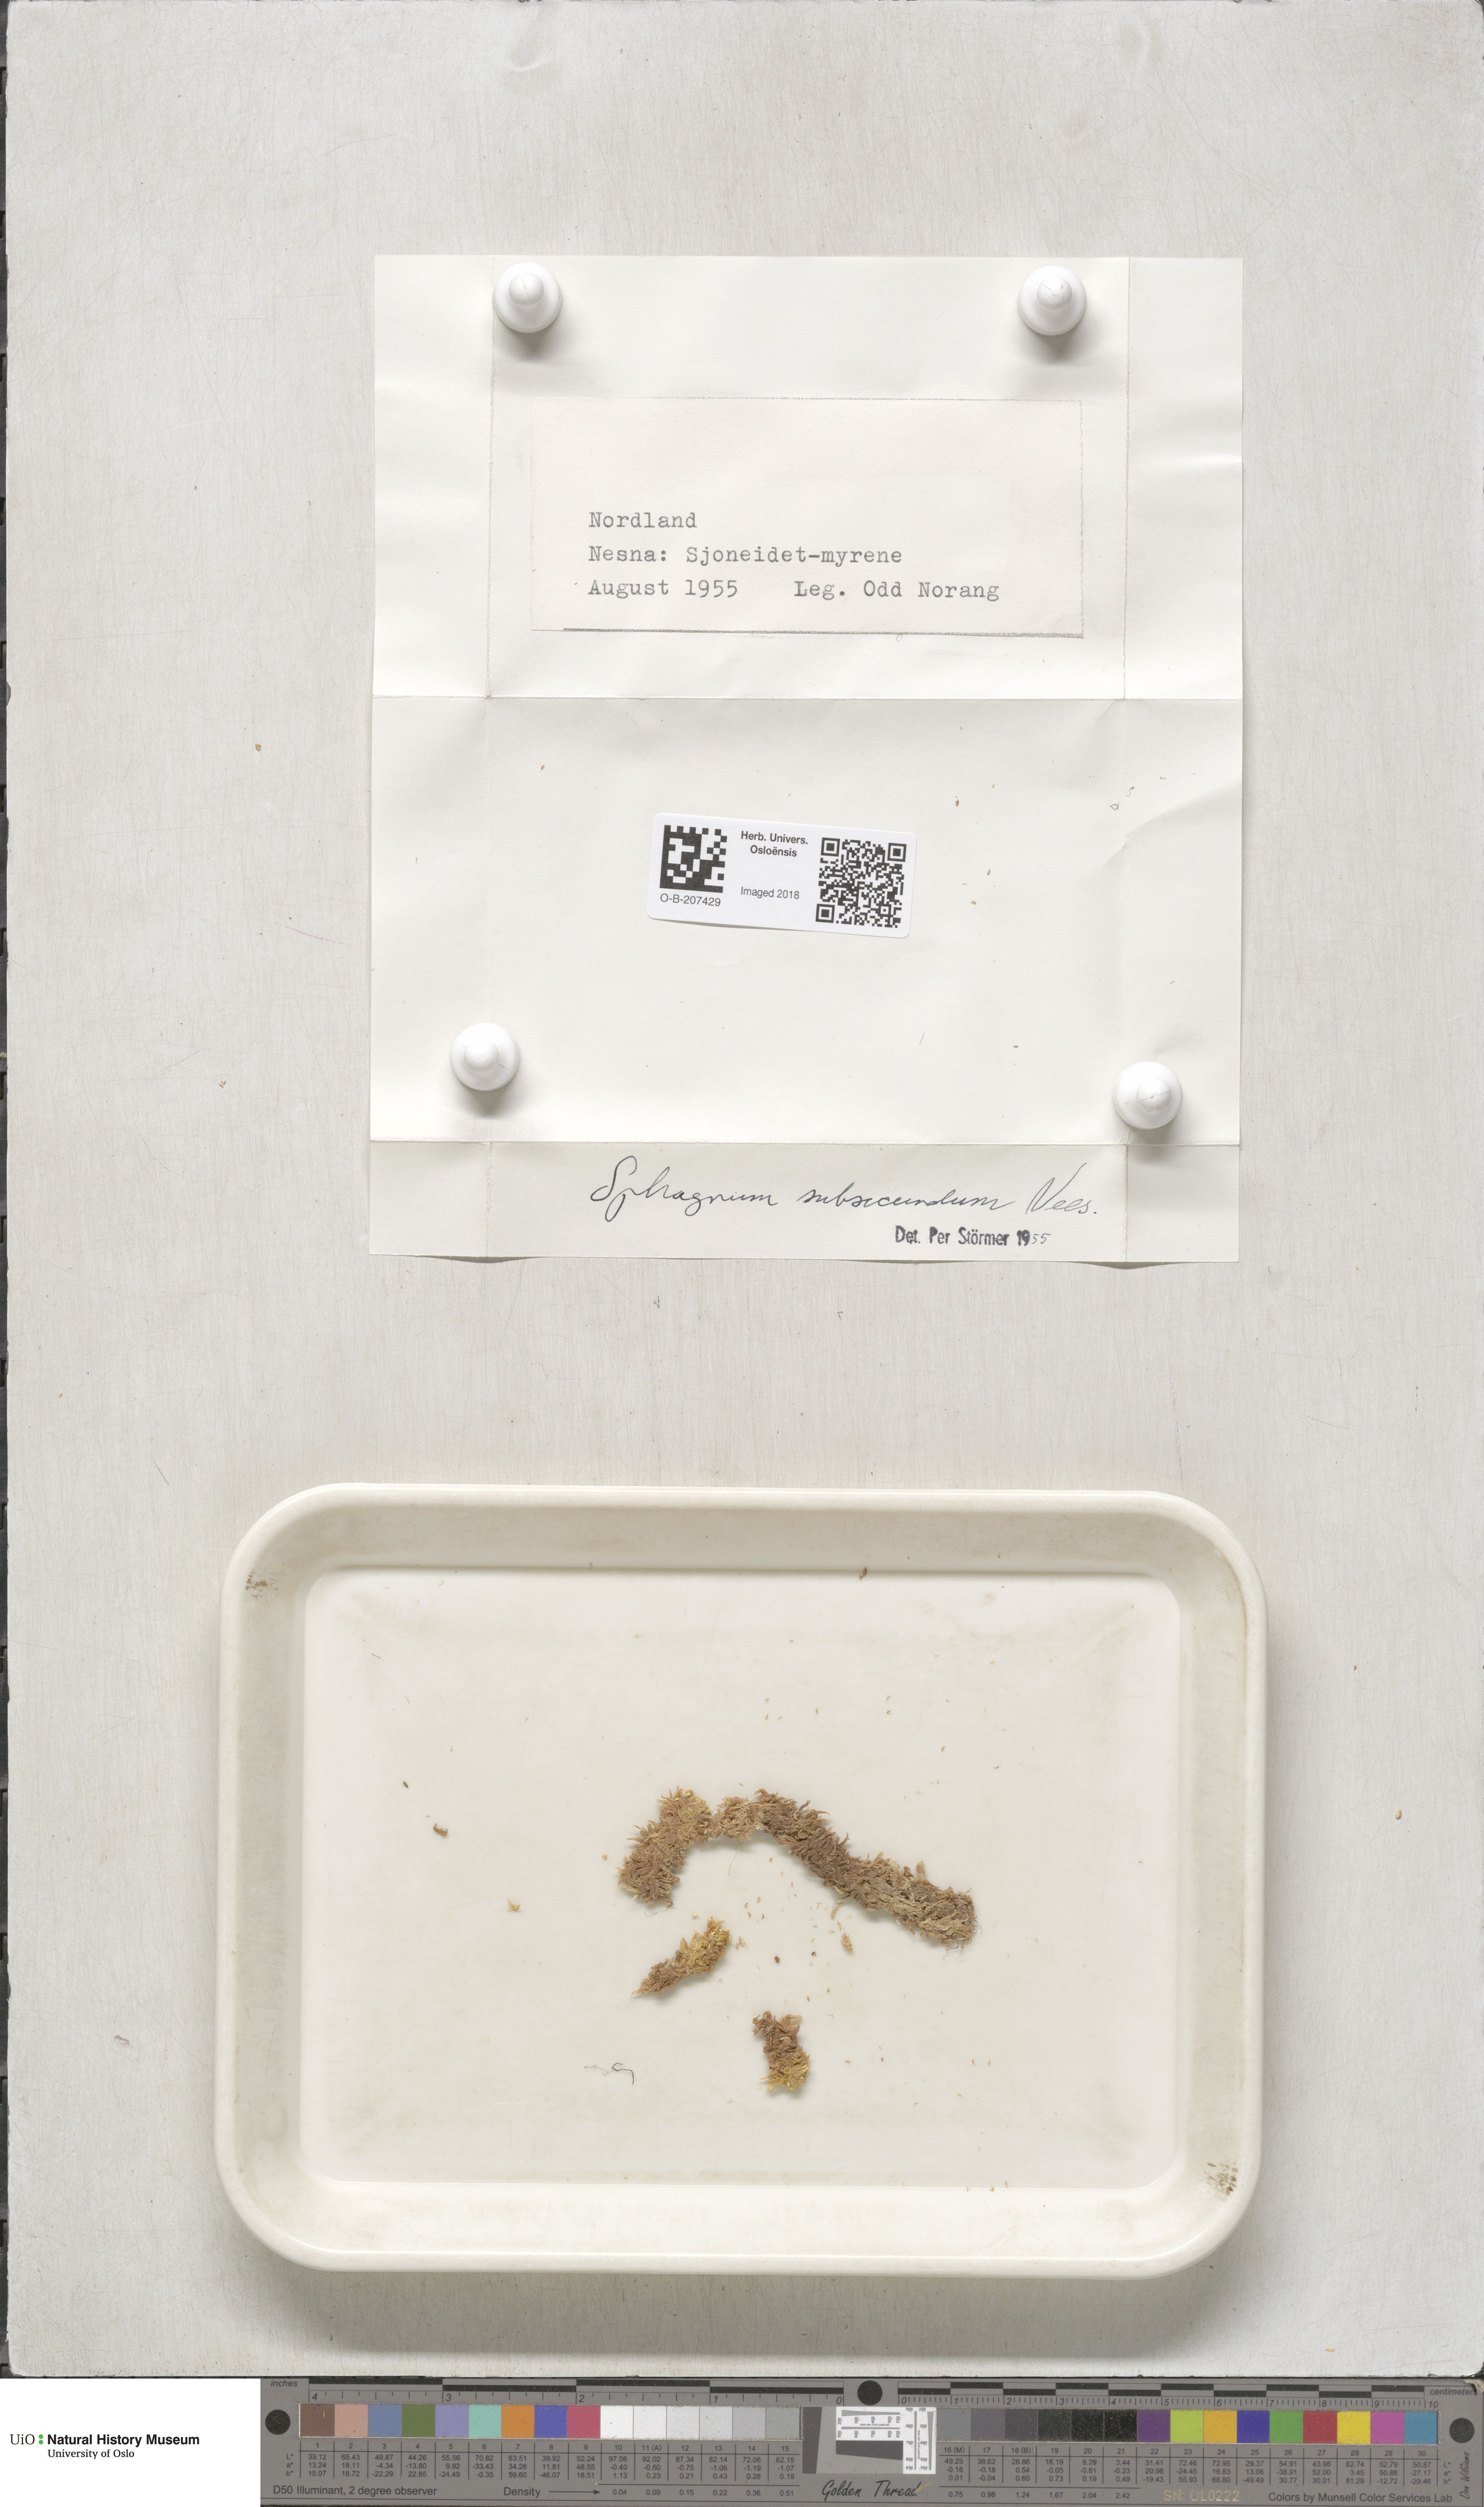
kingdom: Plantae
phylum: Bryophyta
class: Sphagnopsida
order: Sphagnales
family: Sphagnaceae
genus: Sphagnum
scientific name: Sphagnum subsecundum
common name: Orange peat moss
